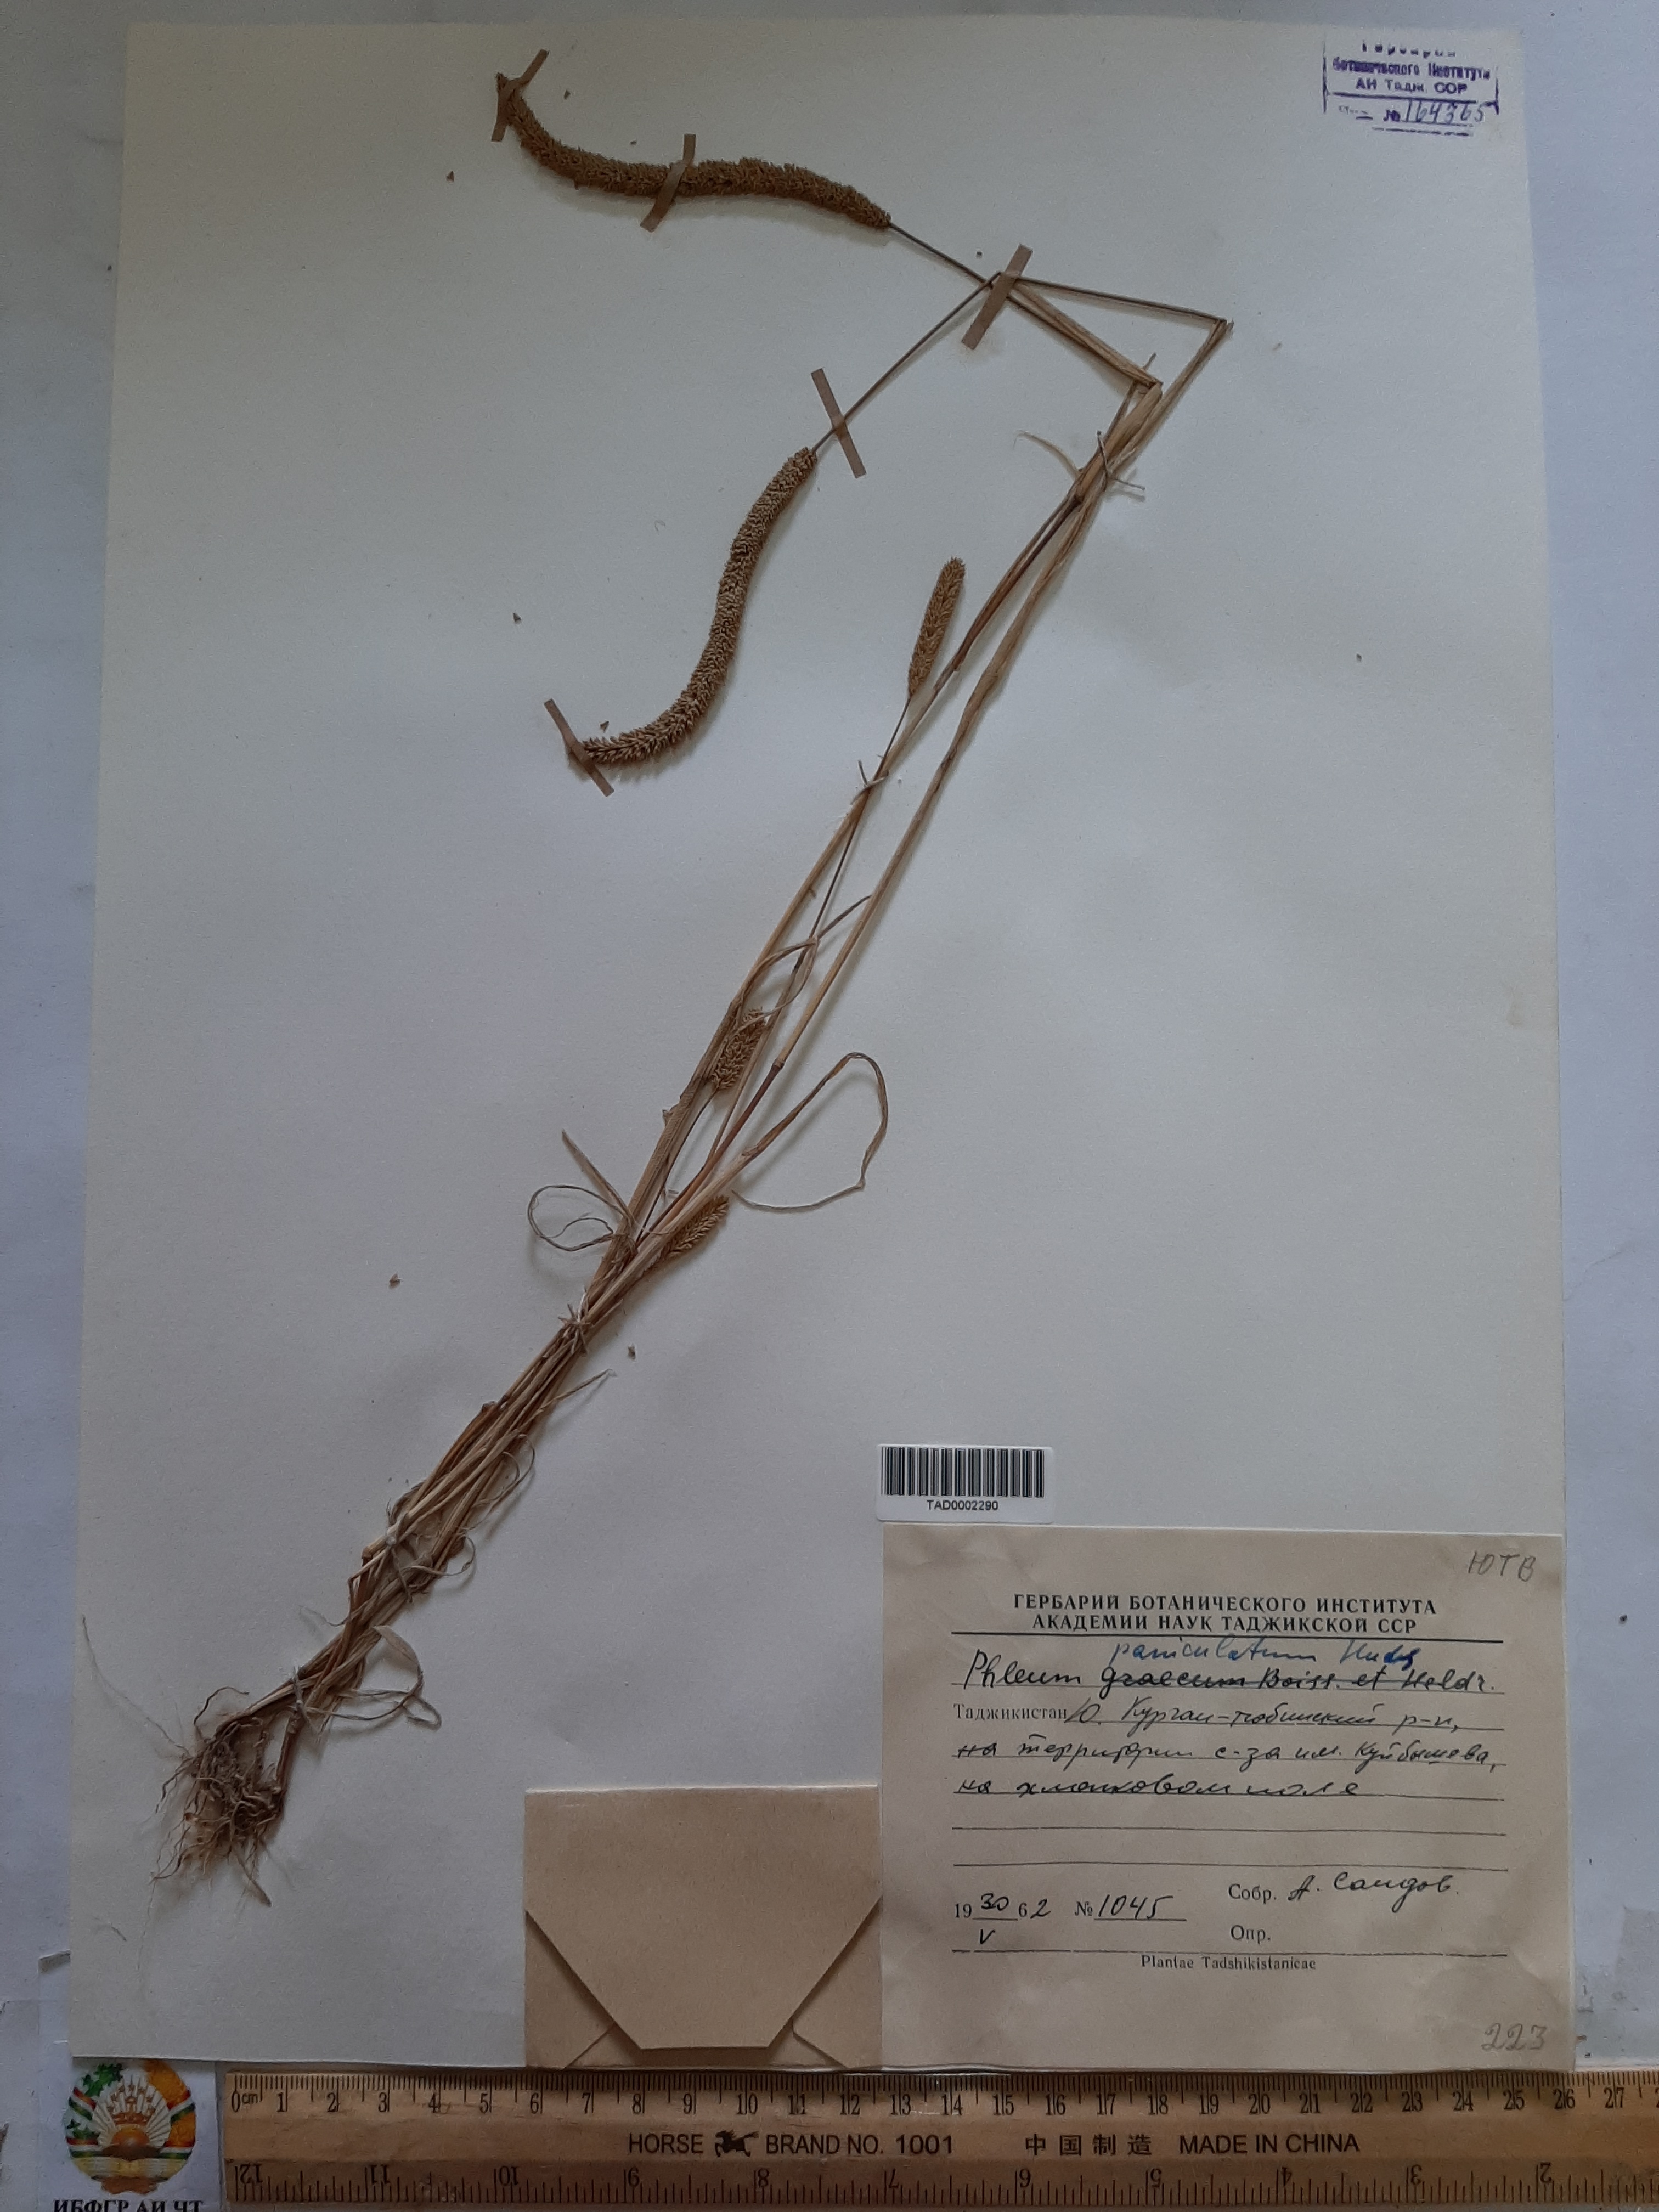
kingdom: Plantae
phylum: Tracheophyta
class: Liliopsida
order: Poales
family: Poaceae
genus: Phleum
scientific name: Phleum paniculatum
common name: British timothy
